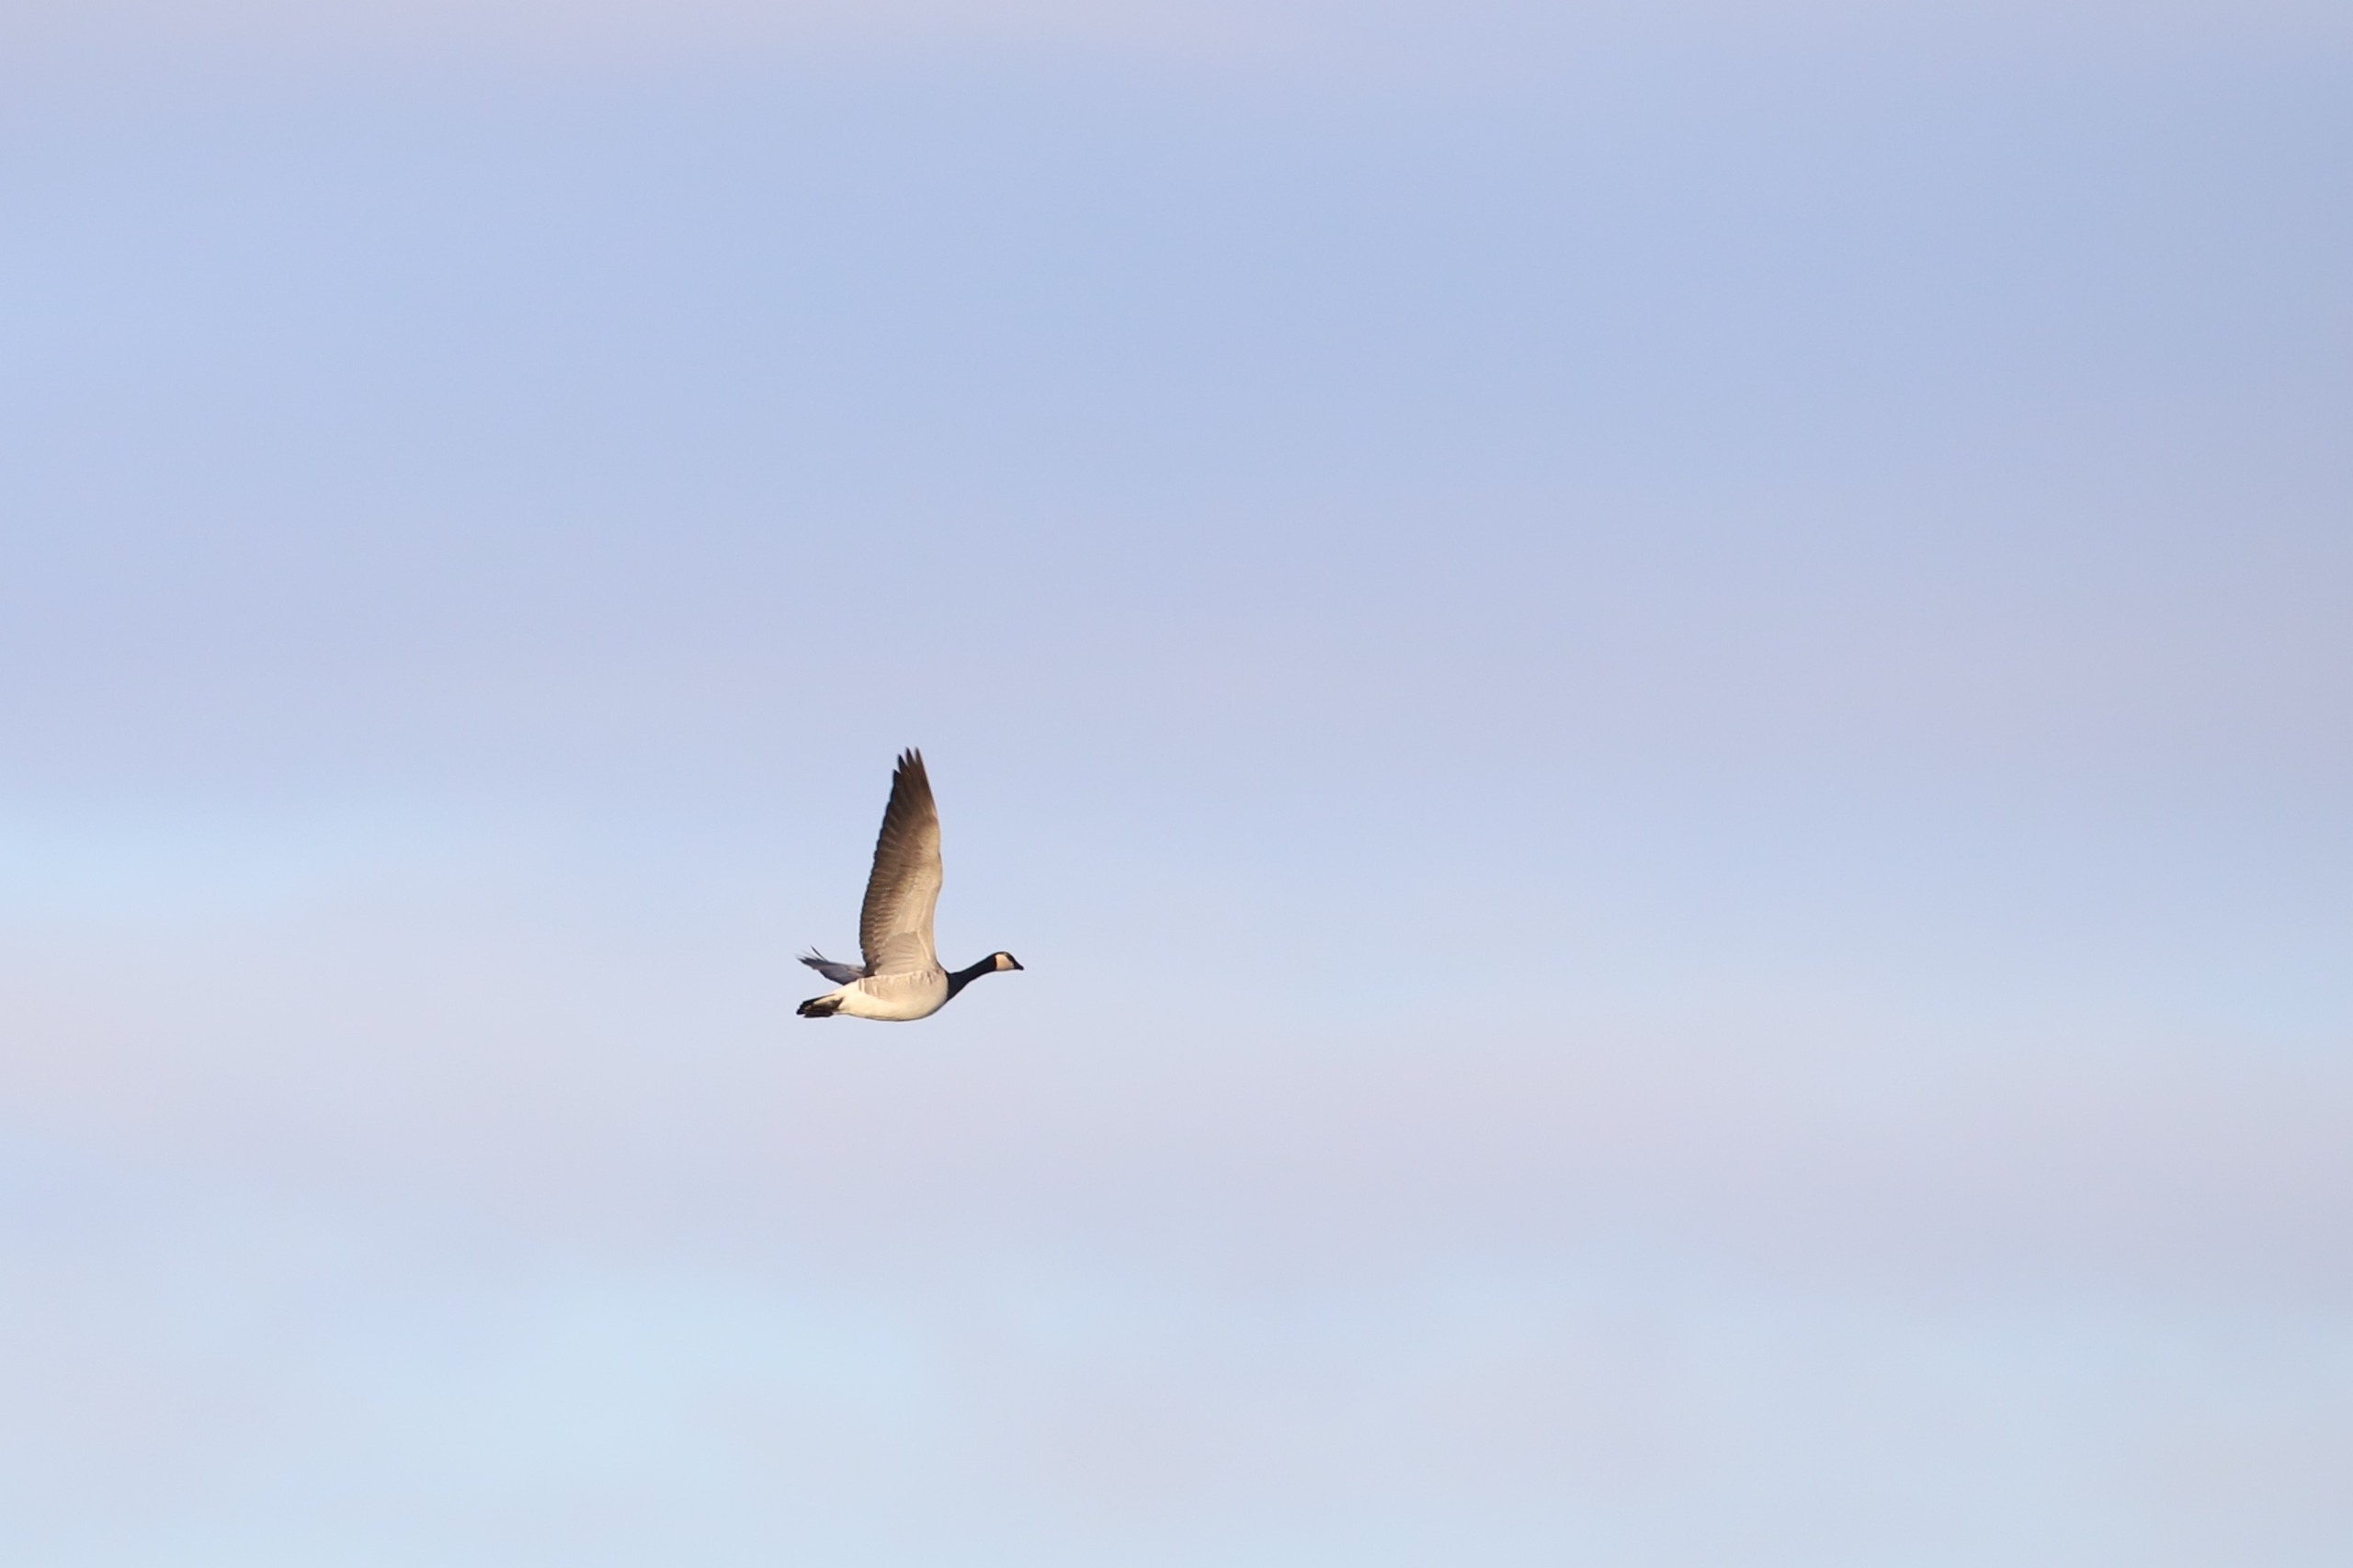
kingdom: Animalia
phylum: Chordata
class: Aves
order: Anseriformes
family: Anatidae
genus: Branta
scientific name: Branta leucopsis
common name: Bramgås
